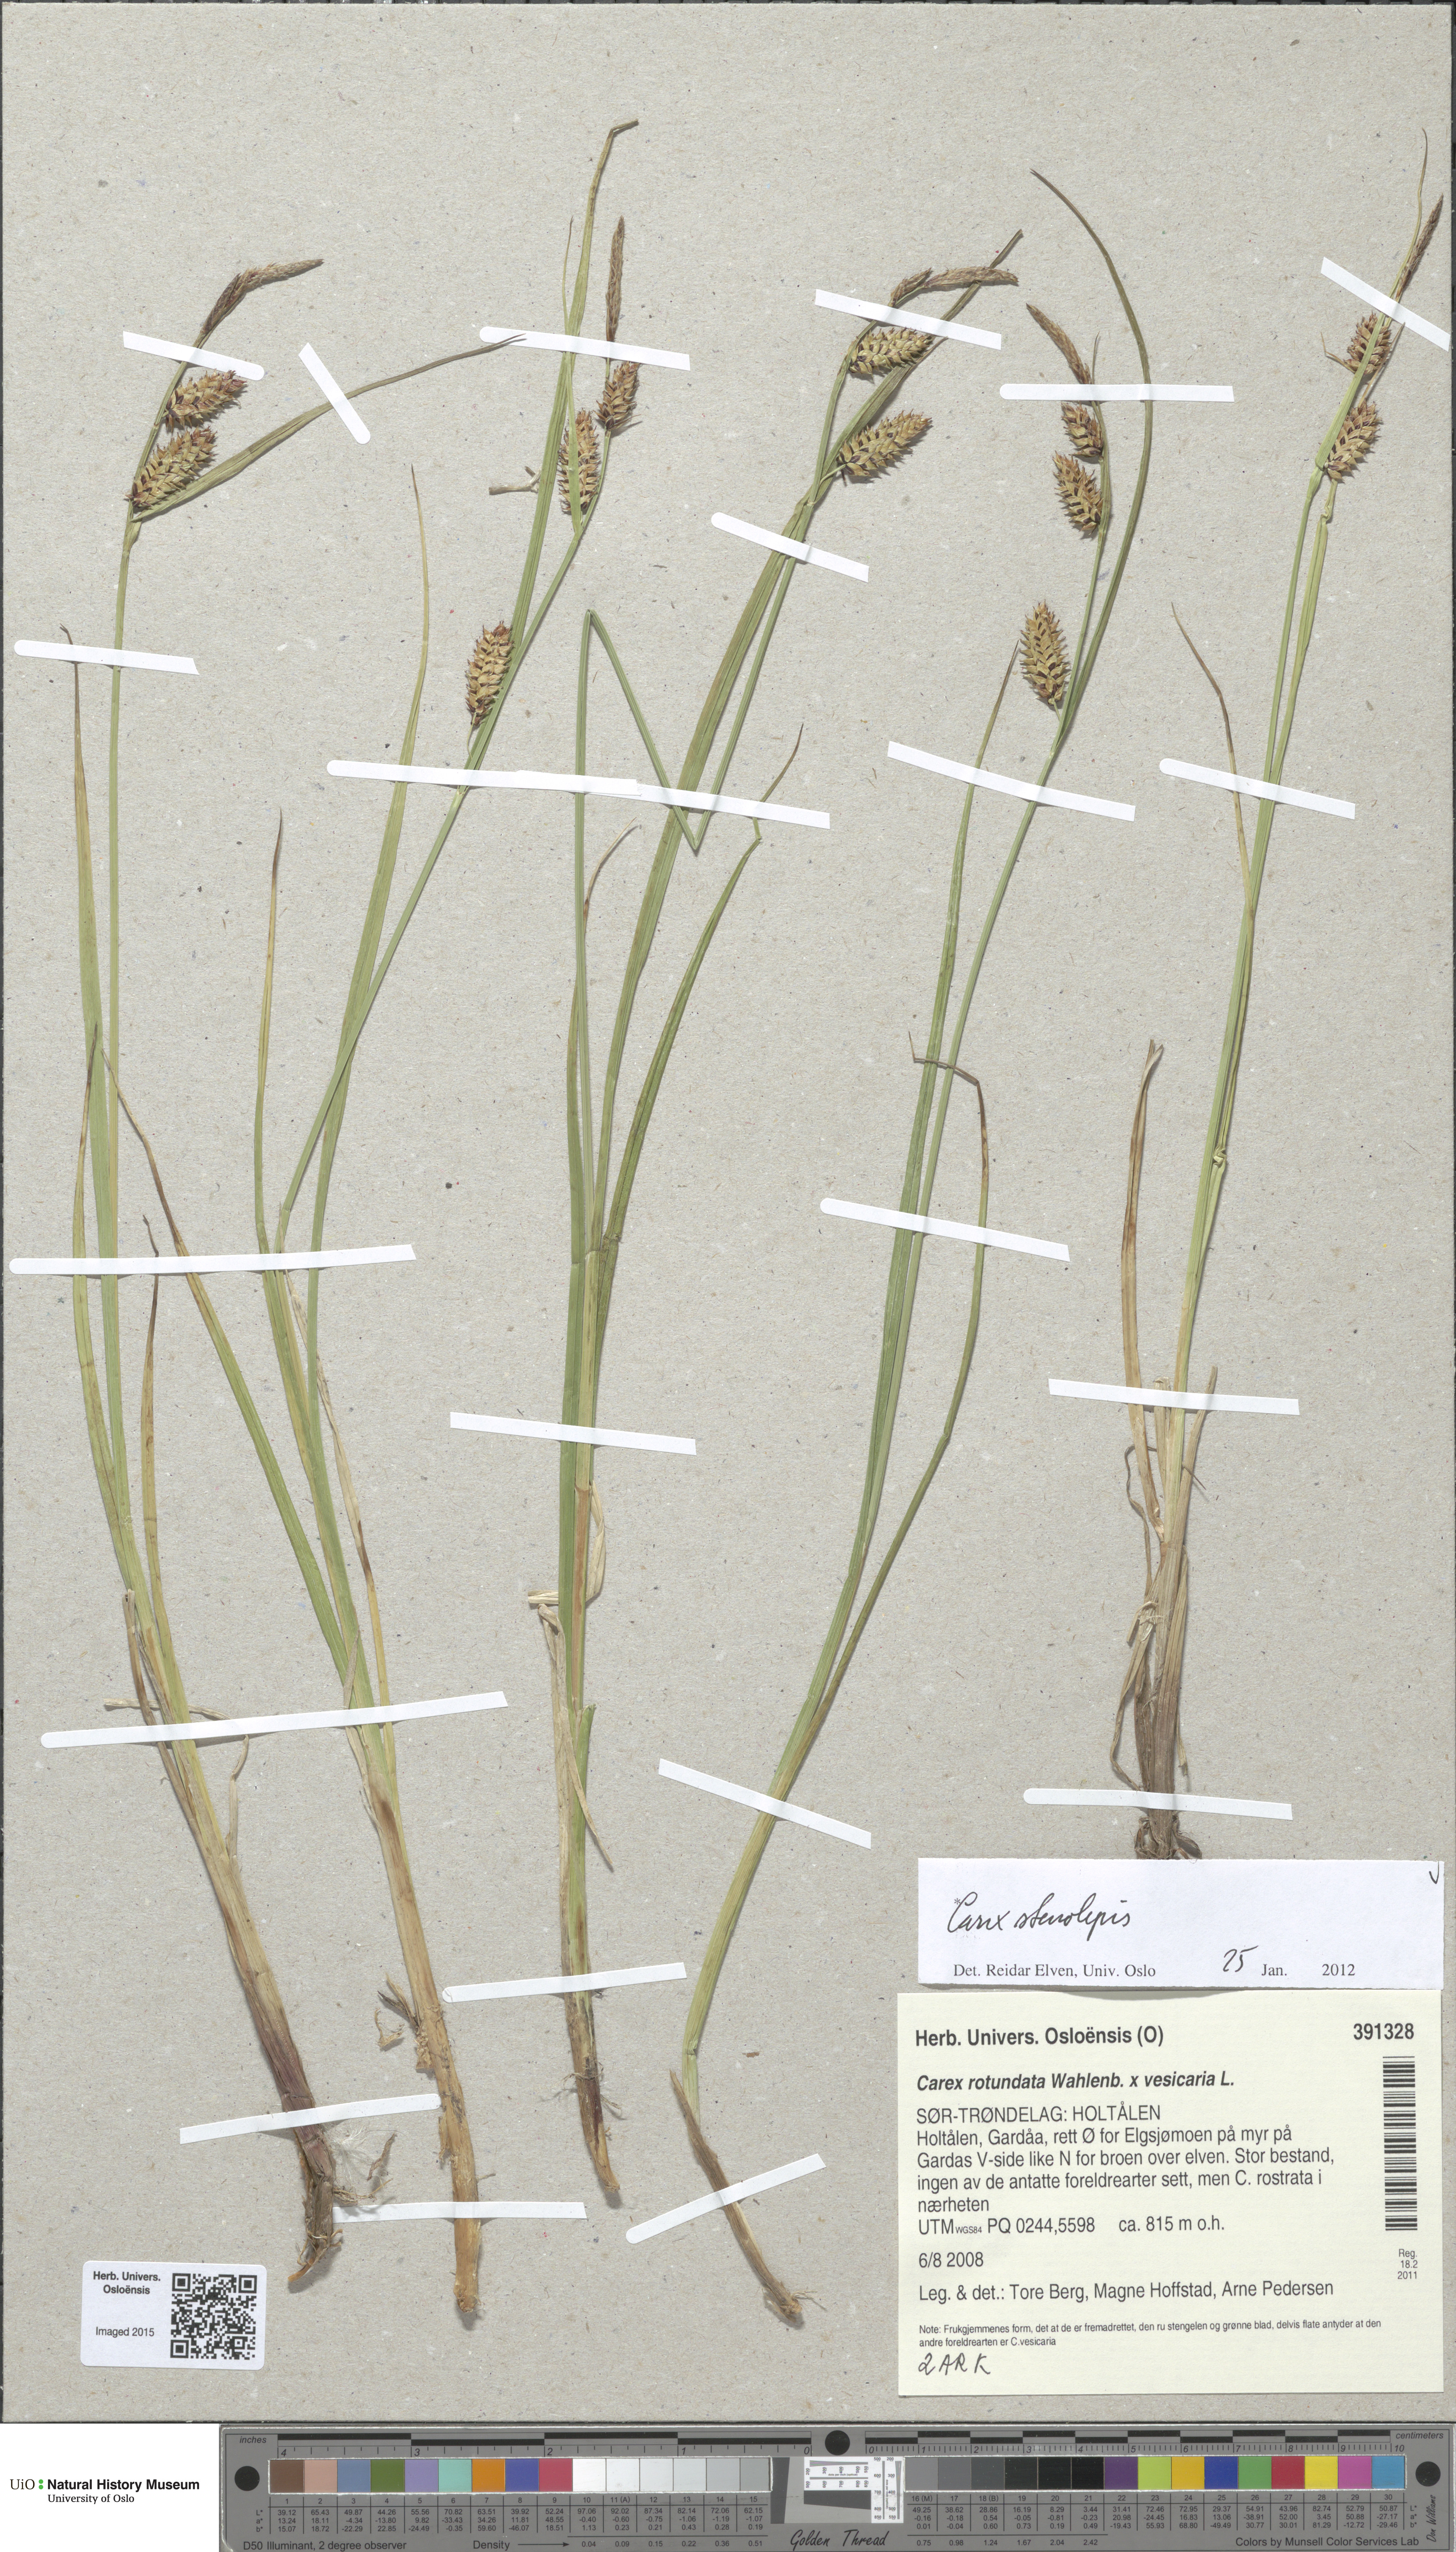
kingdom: Plantae
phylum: Tracheophyta
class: Liliopsida
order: Poales
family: Cyperaceae
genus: Carex
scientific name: Carex grahamii
